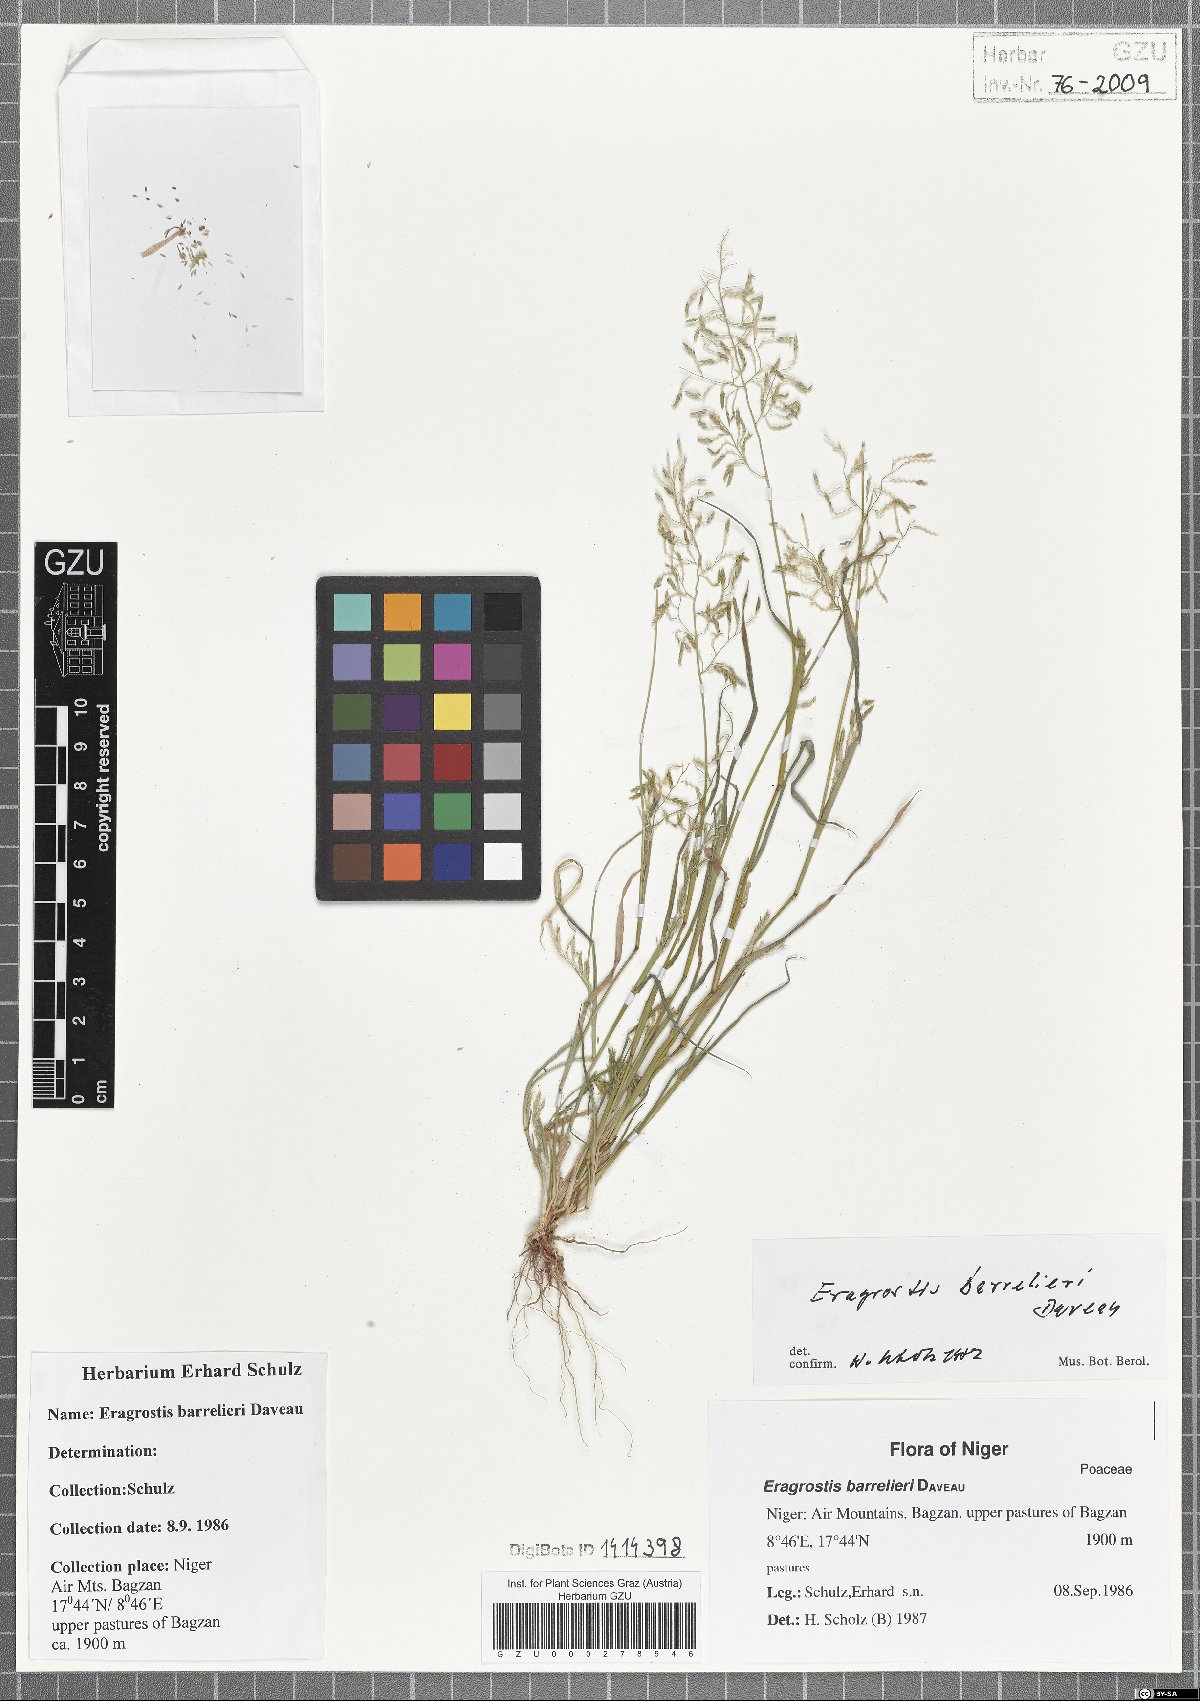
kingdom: Plantae
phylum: Tracheophyta
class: Liliopsida
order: Poales
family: Poaceae
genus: Eragrostis
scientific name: Eragrostis barrelieri
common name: Mediterranean lovegrass
